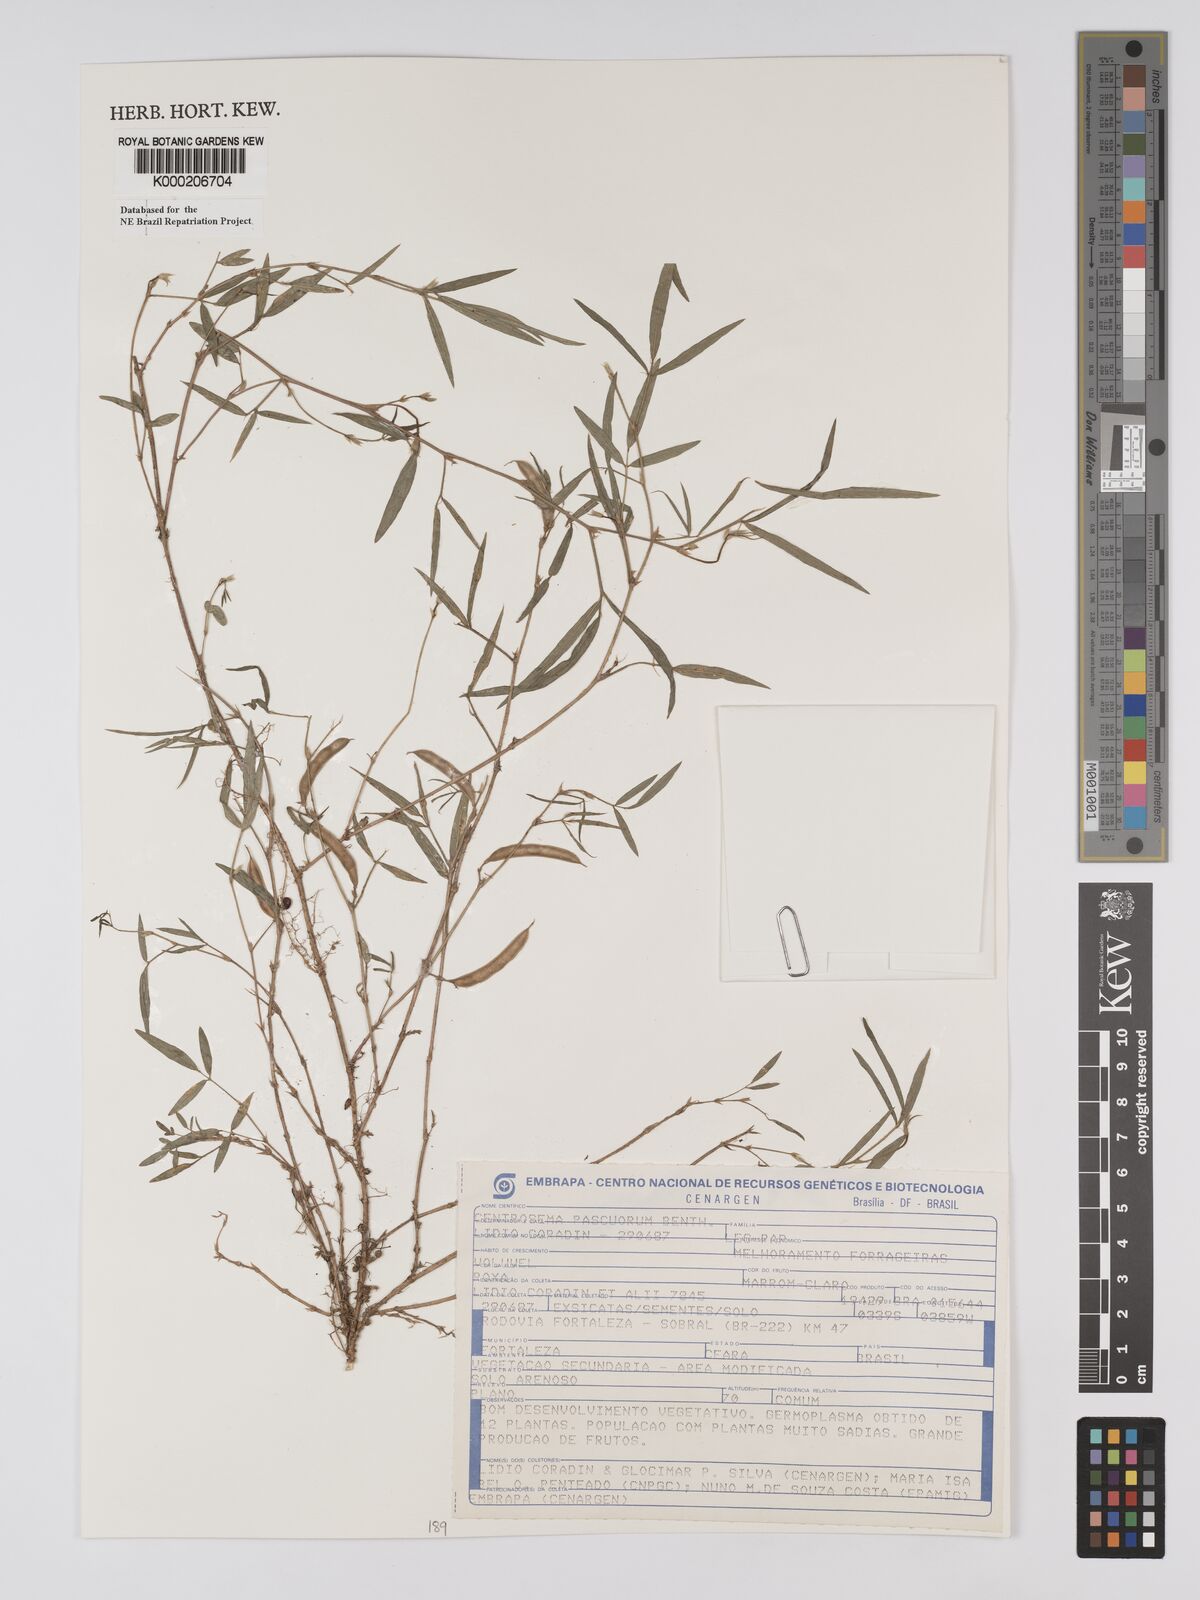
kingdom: Plantae
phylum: Tracheophyta
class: Magnoliopsida
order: Fabales
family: Fabaceae
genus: Centrosema
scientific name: Centrosema pascuorum
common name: Centurion
